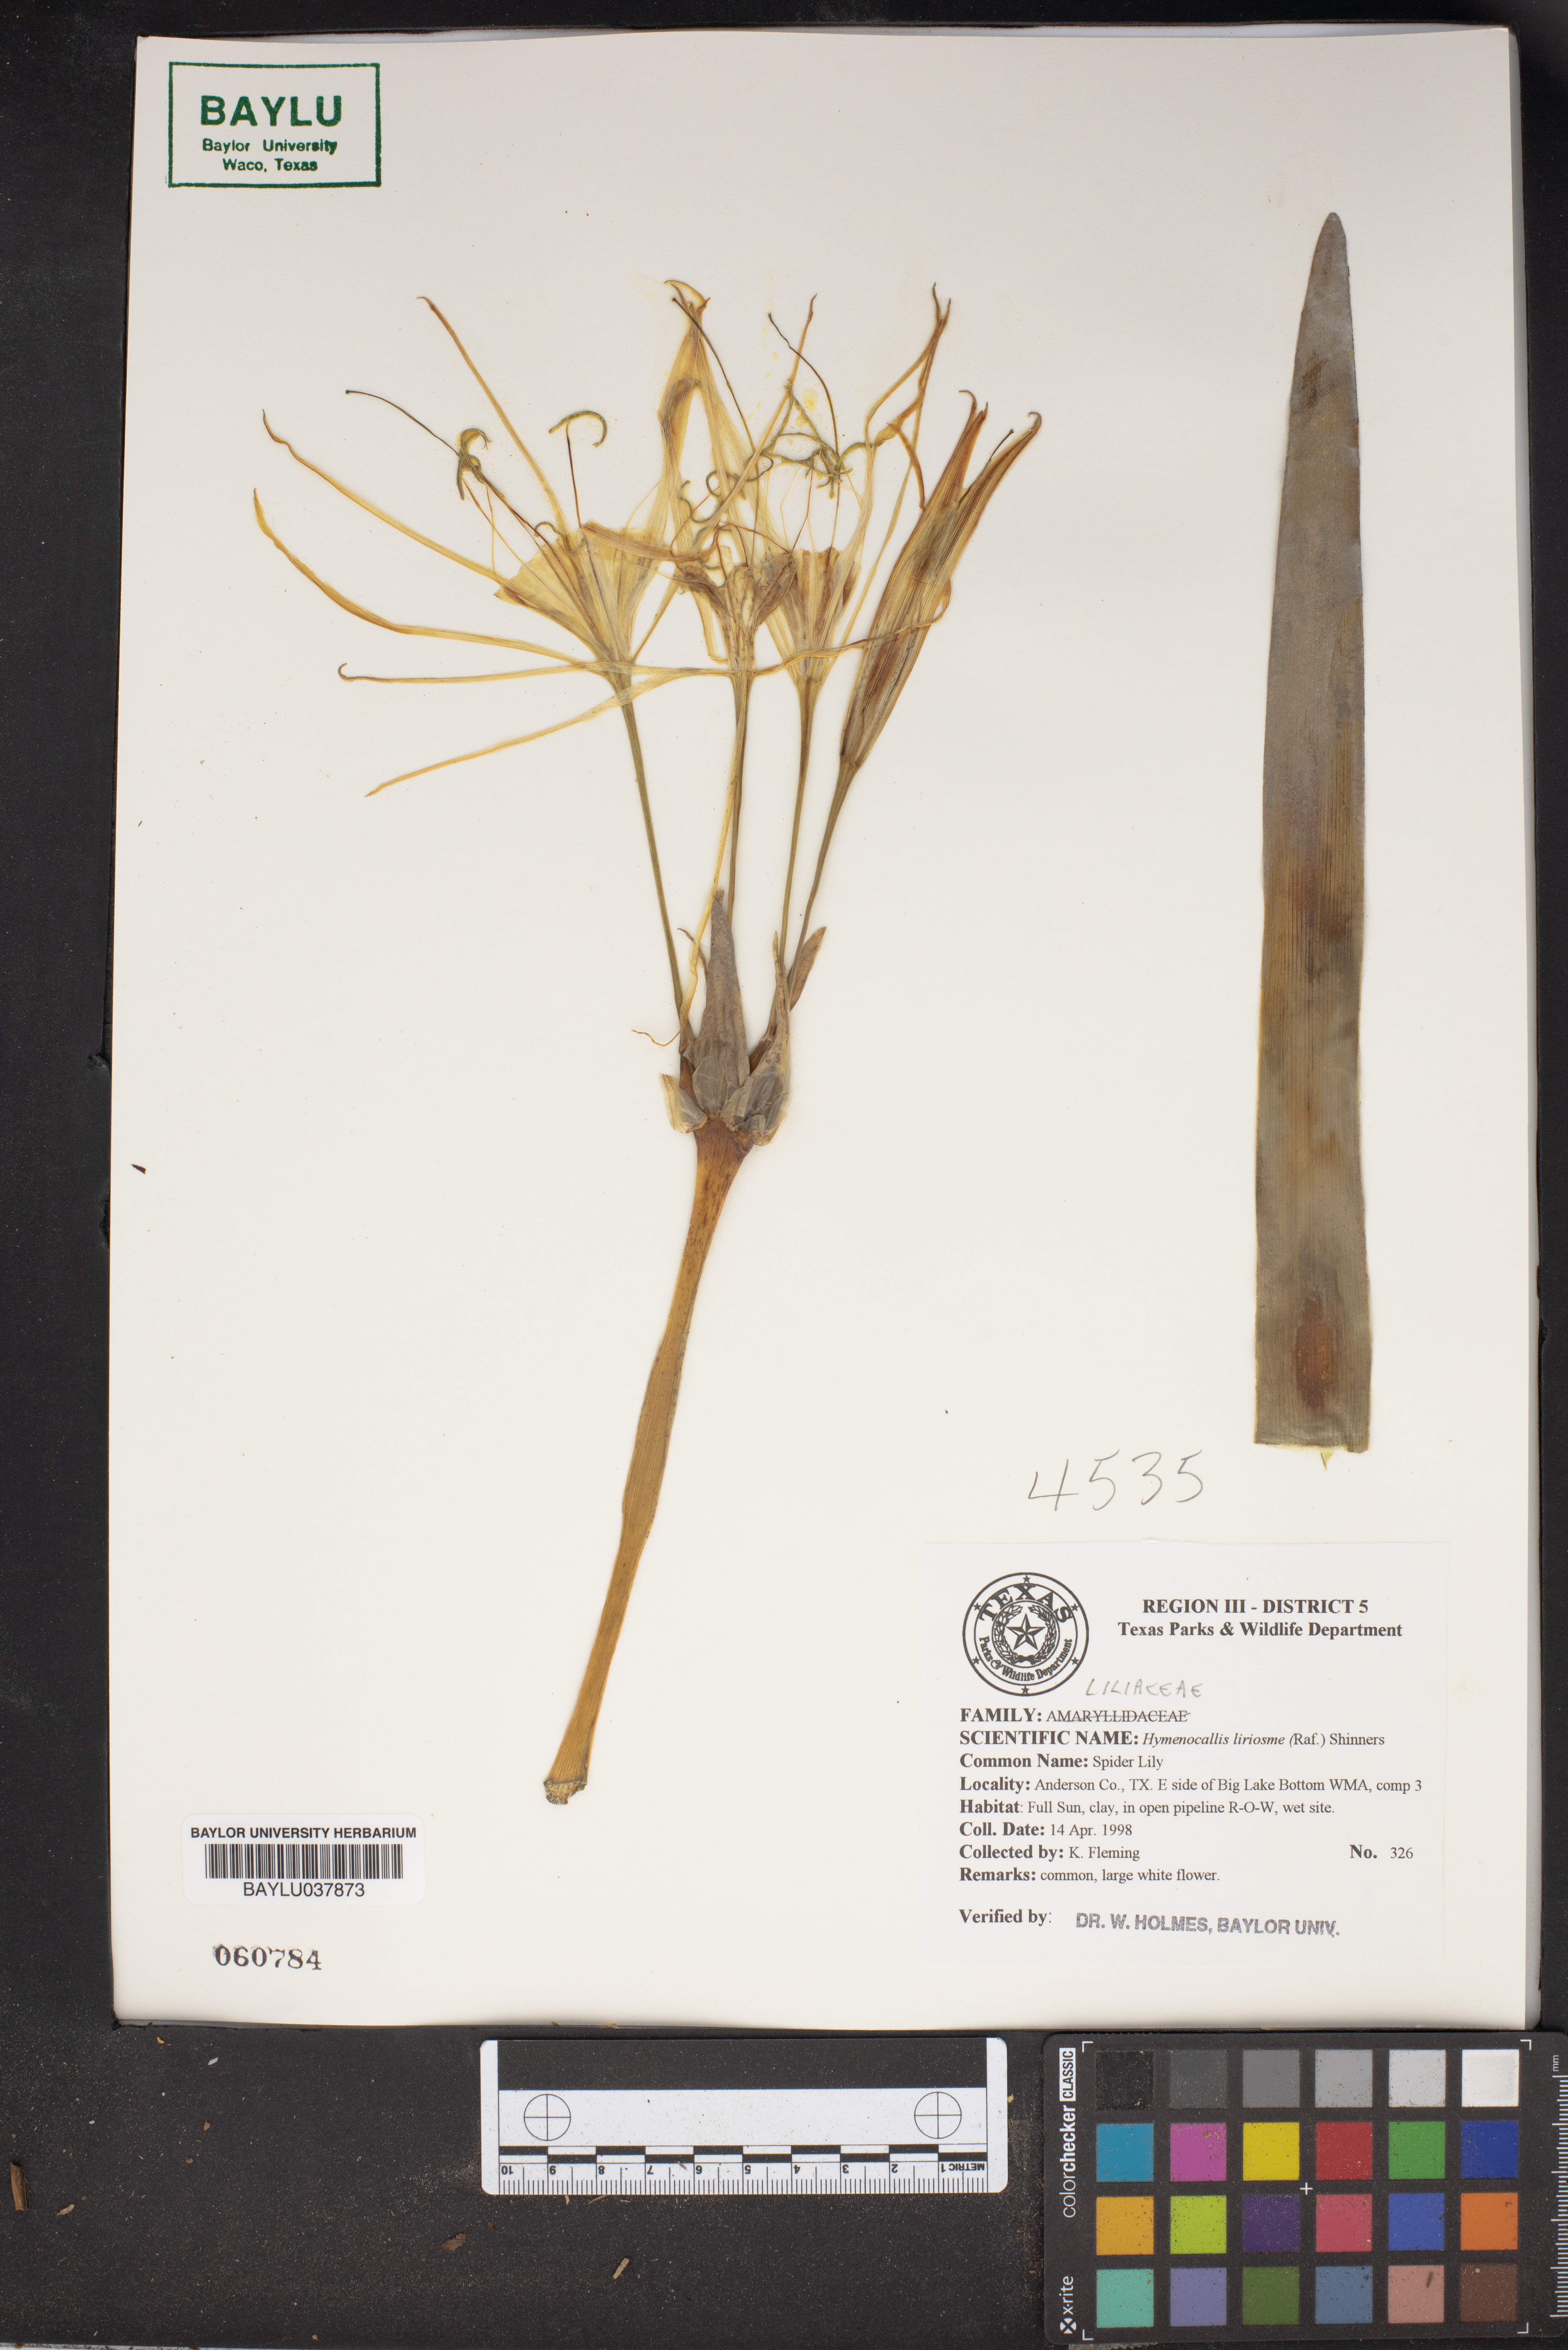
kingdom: Plantae
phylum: Tracheophyta
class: Liliopsida
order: Asparagales
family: Amaryllidaceae
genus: Hymenocallis
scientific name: Hymenocallis liriosme
